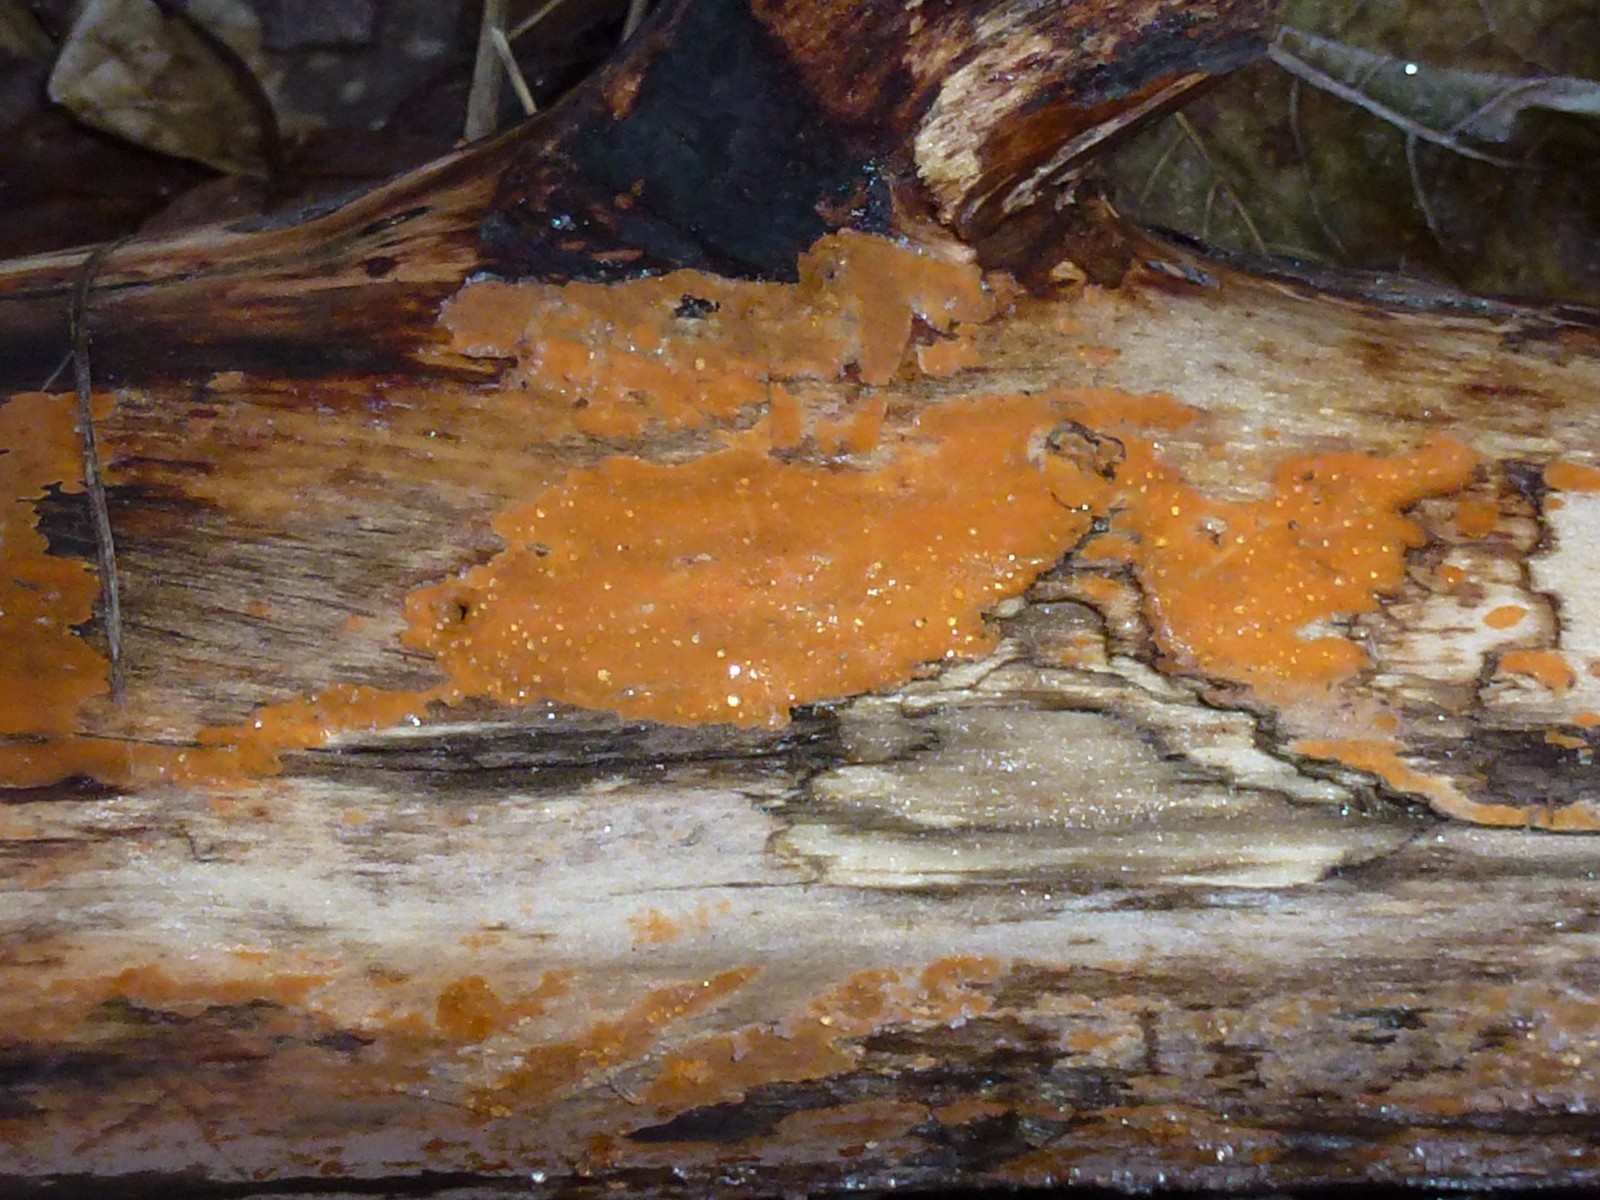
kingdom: Fungi
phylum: Basidiomycota
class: Agaricomycetes
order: Russulales
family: Peniophoraceae
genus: Peniophora
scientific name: Peniophora incarnata
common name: laksefarvet voksskind
